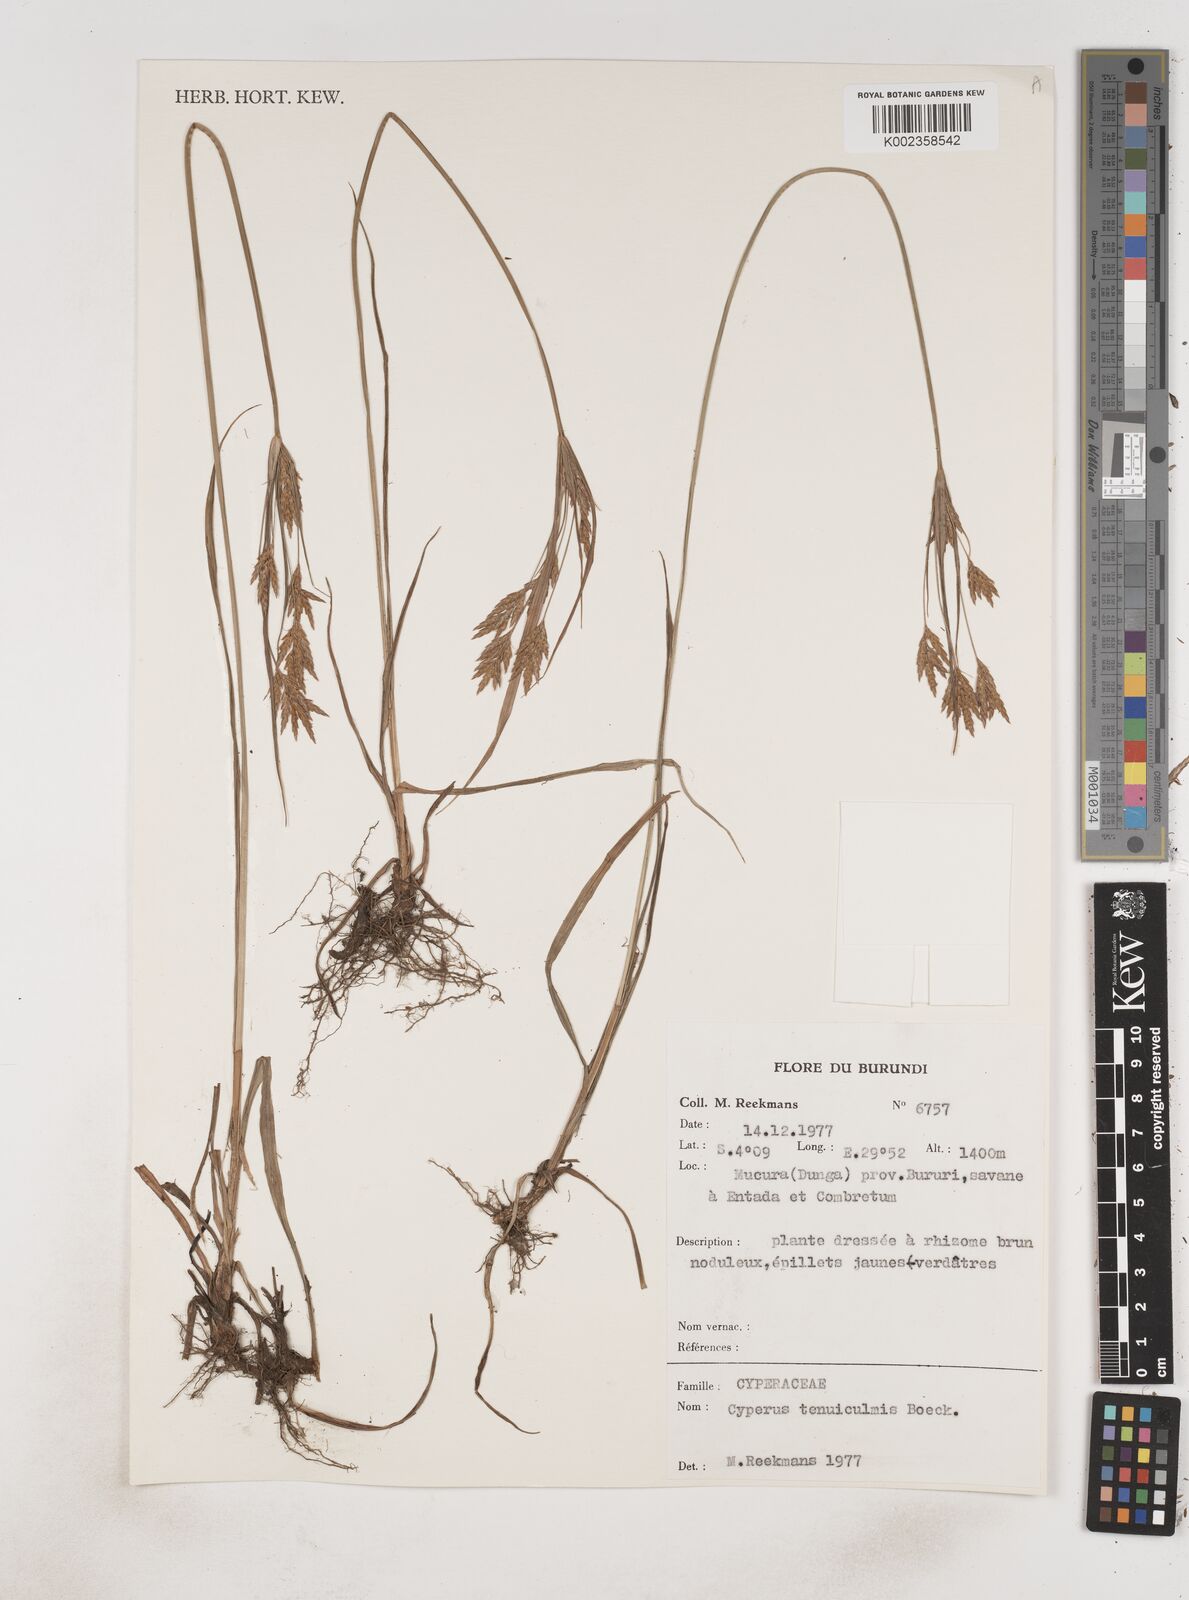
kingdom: Plantae
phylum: Tracheophyta
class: Liliopsida
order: Poales
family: Cyperaceae
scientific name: Cyperaceae
